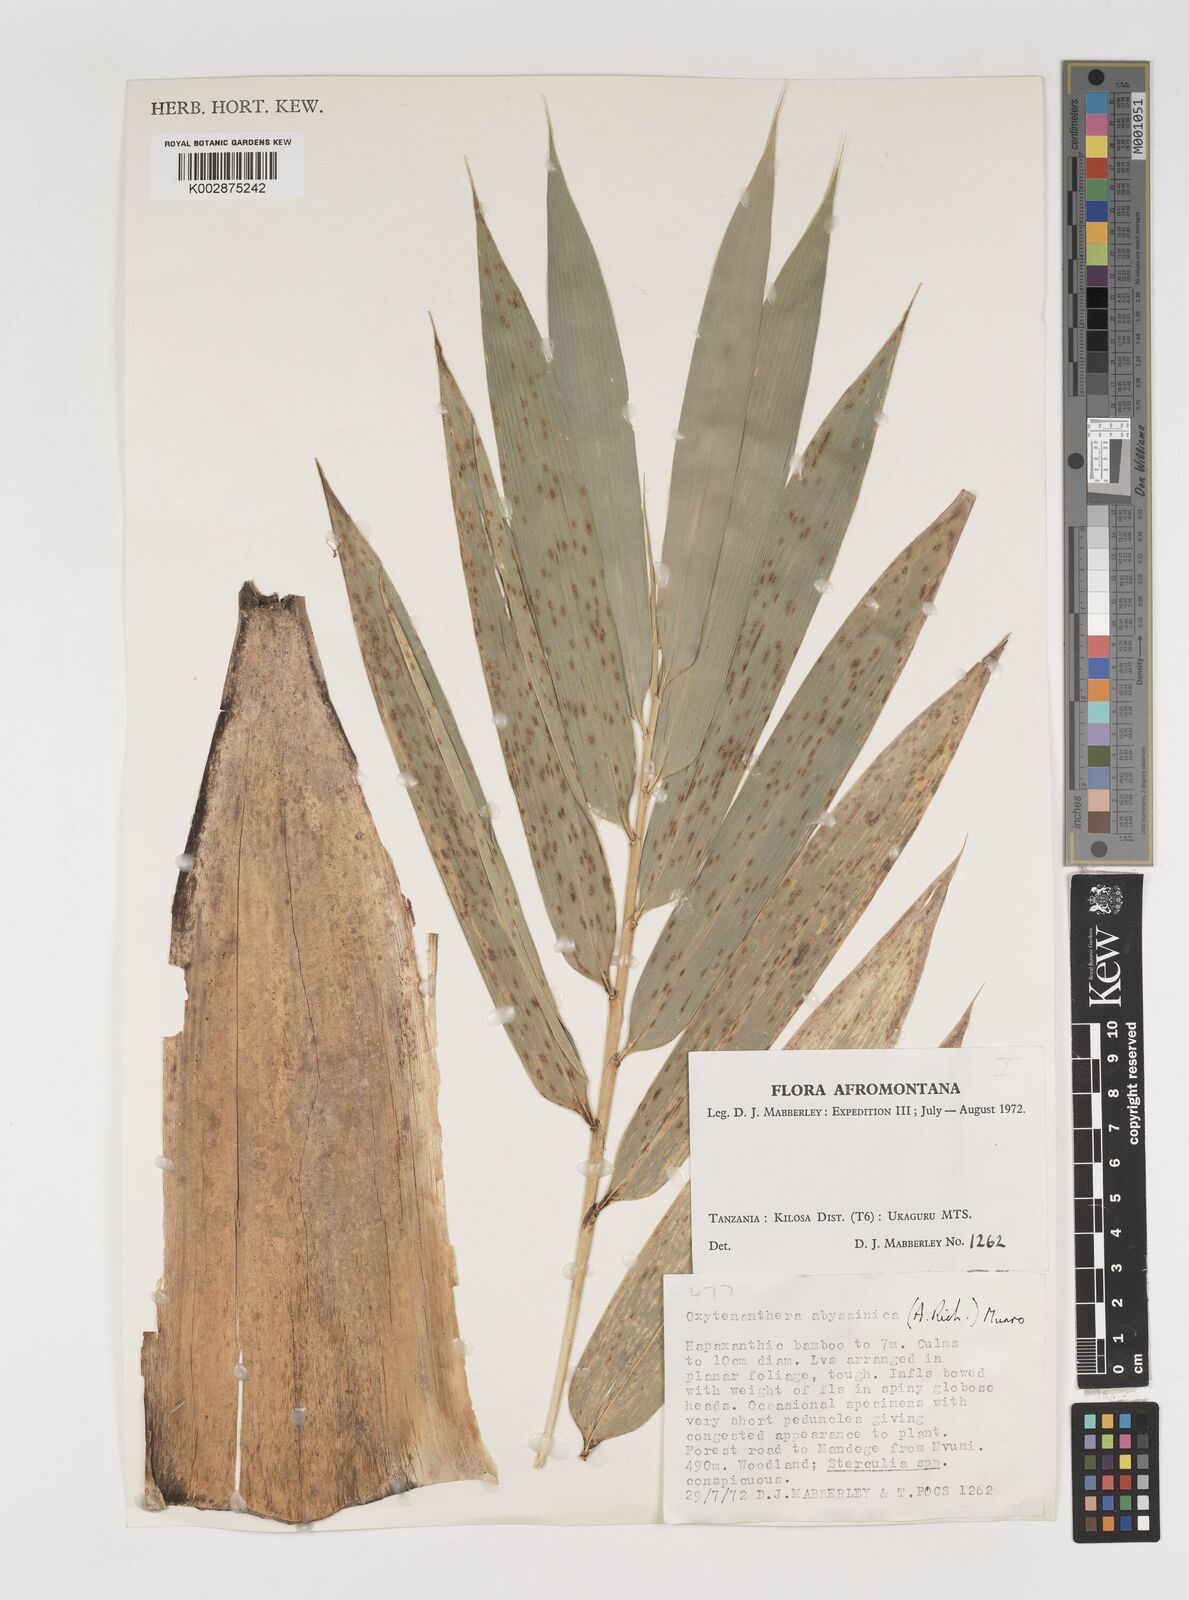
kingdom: Plantae
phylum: Tracheophyta
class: Liliopsida
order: Poales
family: Poaceae
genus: Oxytenanthera
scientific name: Oxytenanthera
